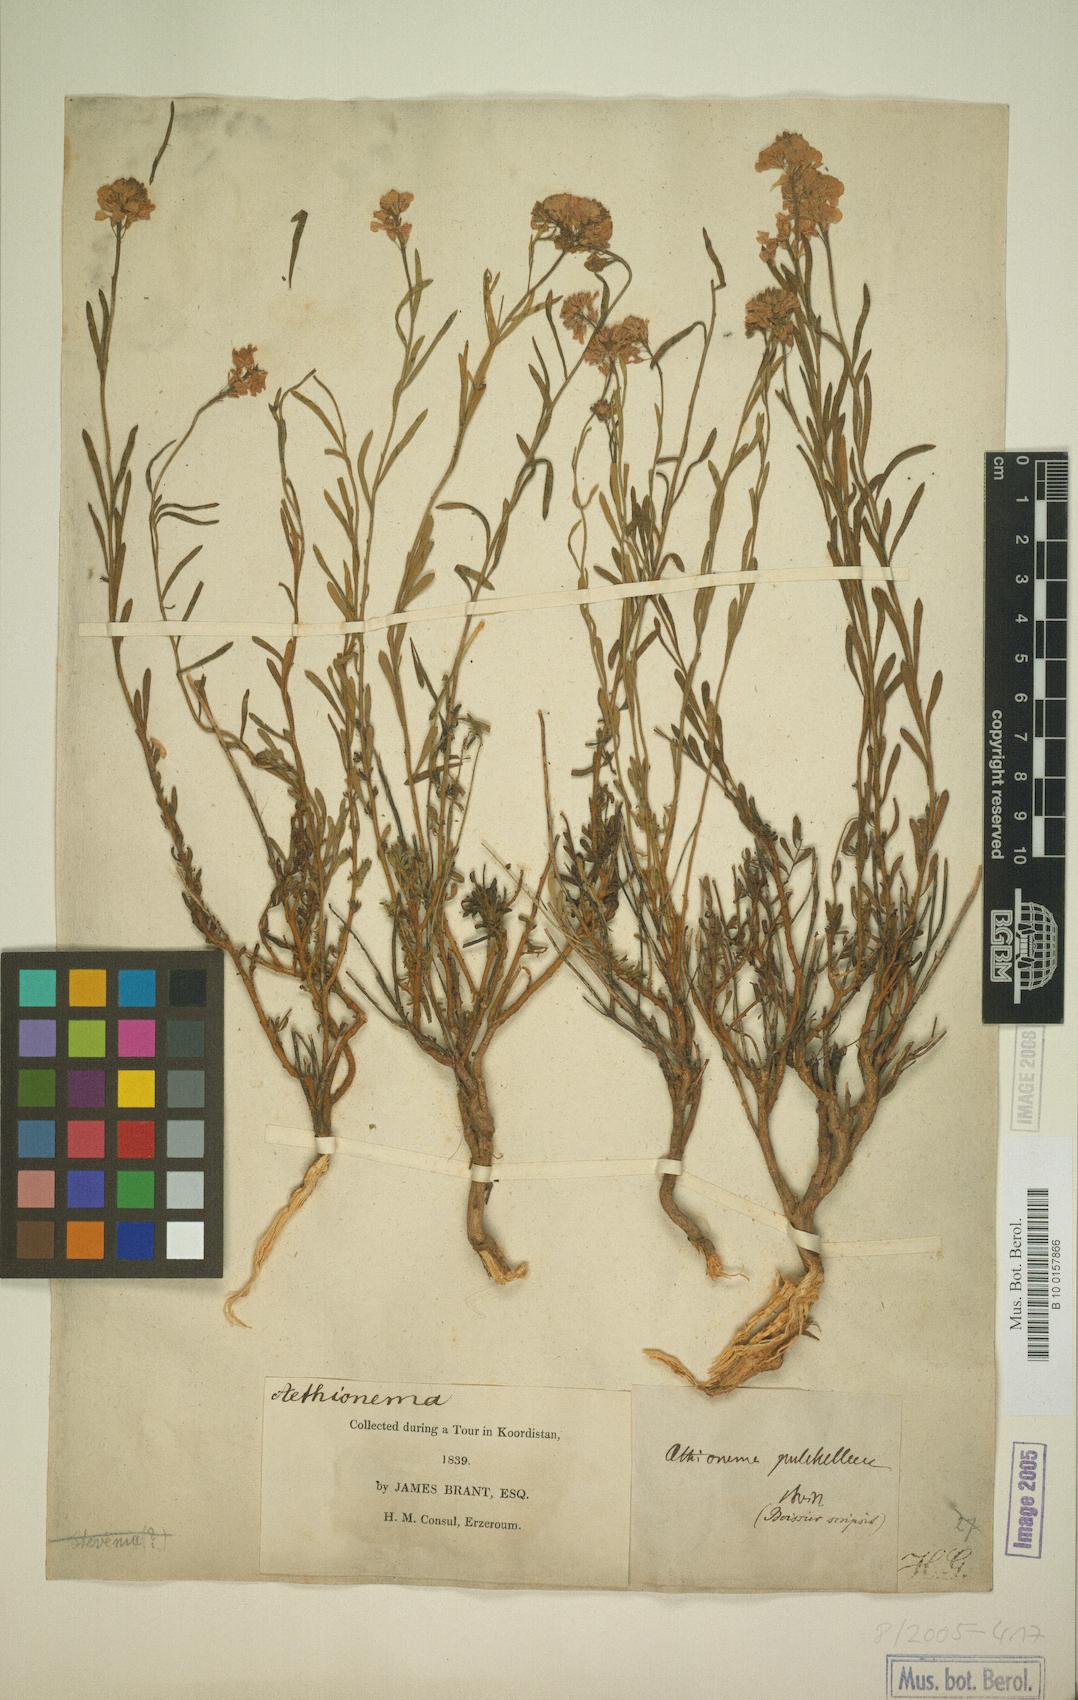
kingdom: Plantae
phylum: Tracheophyta
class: Magnoliopsida
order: Brassicales
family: Brassicaceae
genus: Aethionema
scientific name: Aethionema grandiflorum
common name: Persian stonecress
